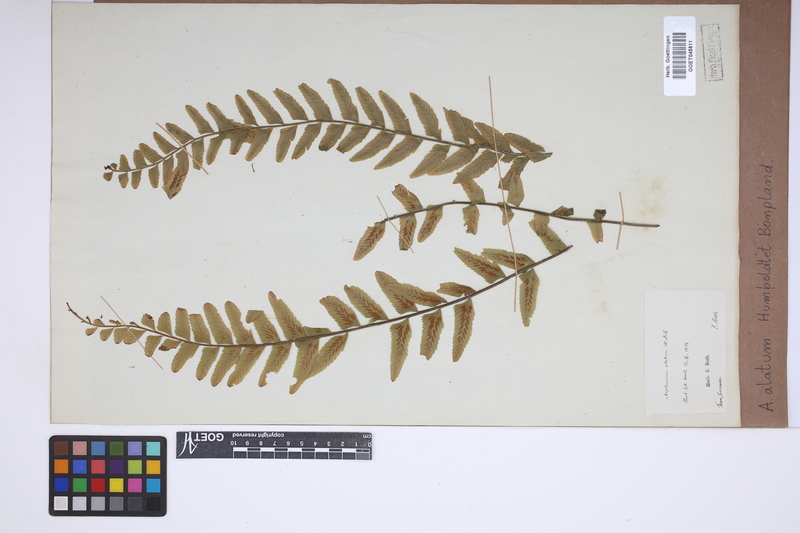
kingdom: Plantae
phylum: Tracheophyta
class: Polypodiopsida
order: Polypodiales
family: Aspleniaceae
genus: Asplenium
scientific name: Asplenium alatum
